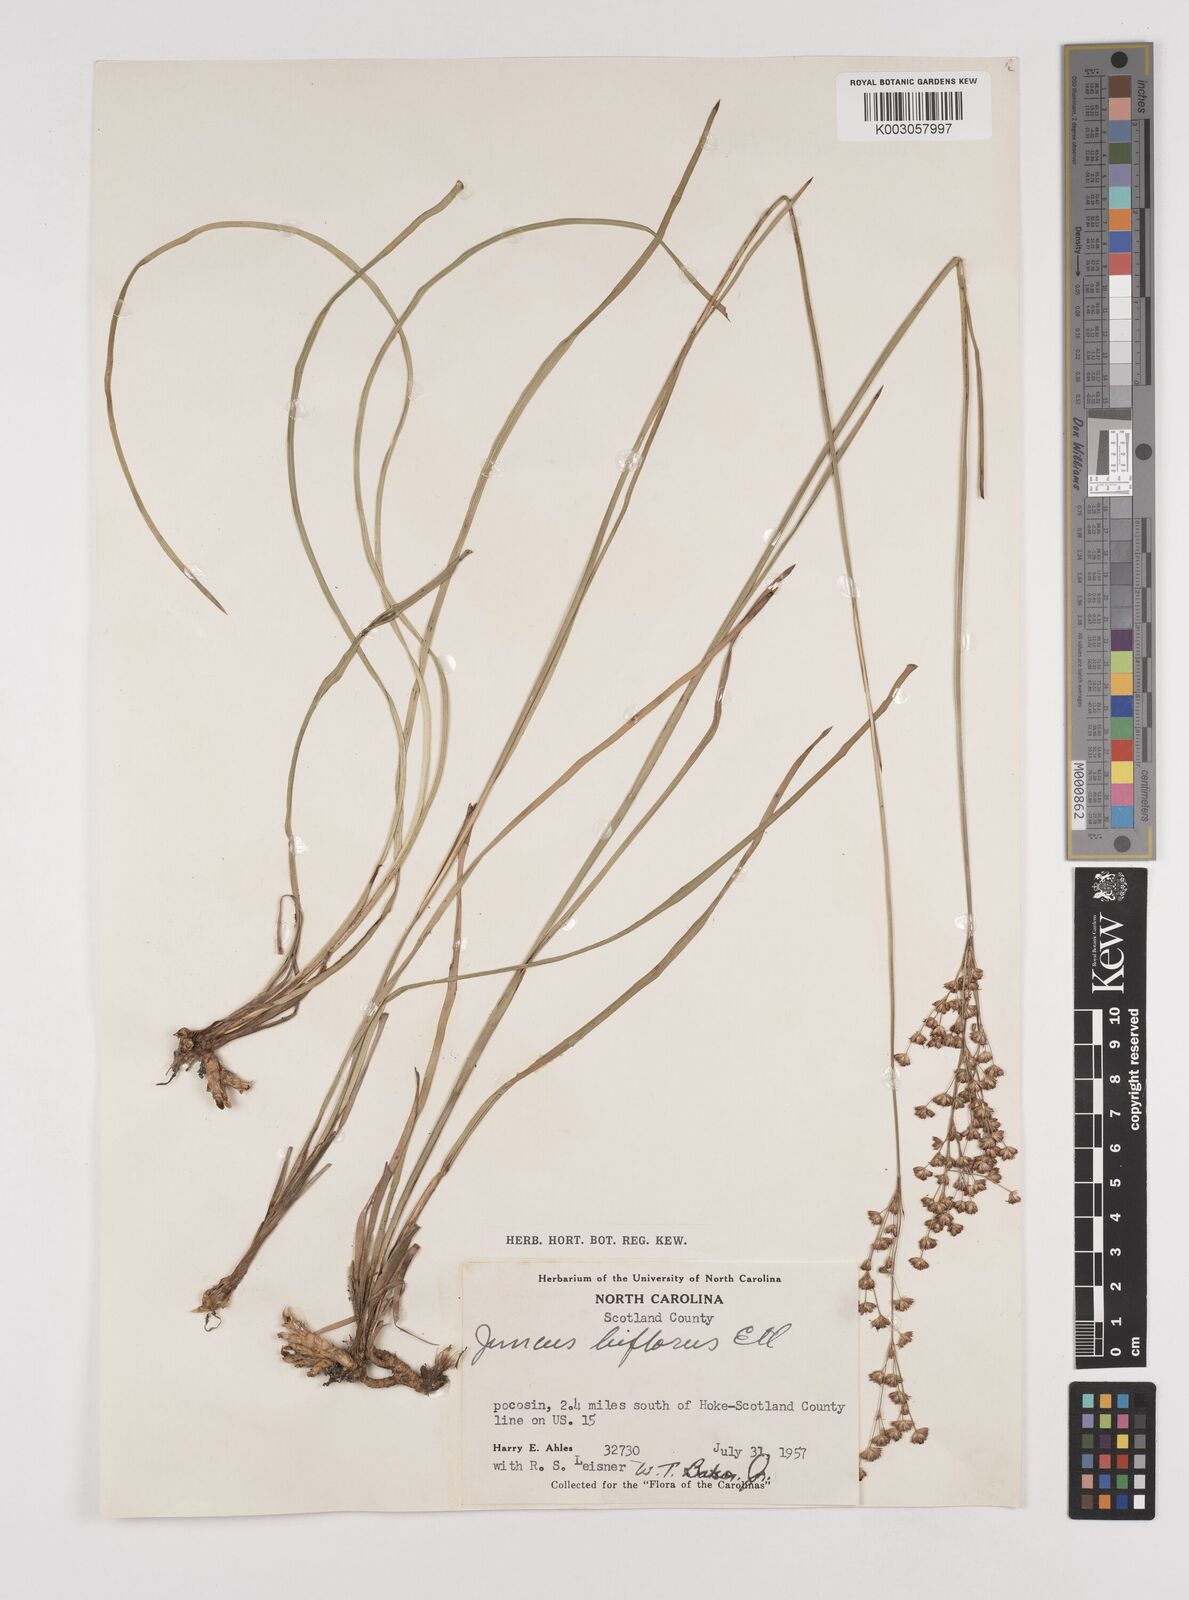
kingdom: Plantae
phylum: Tracheophyta
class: Liliopsida
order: Poales
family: Juncaceae
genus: Juncus
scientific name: Juncus marginatus
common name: Grass-leaf rush
